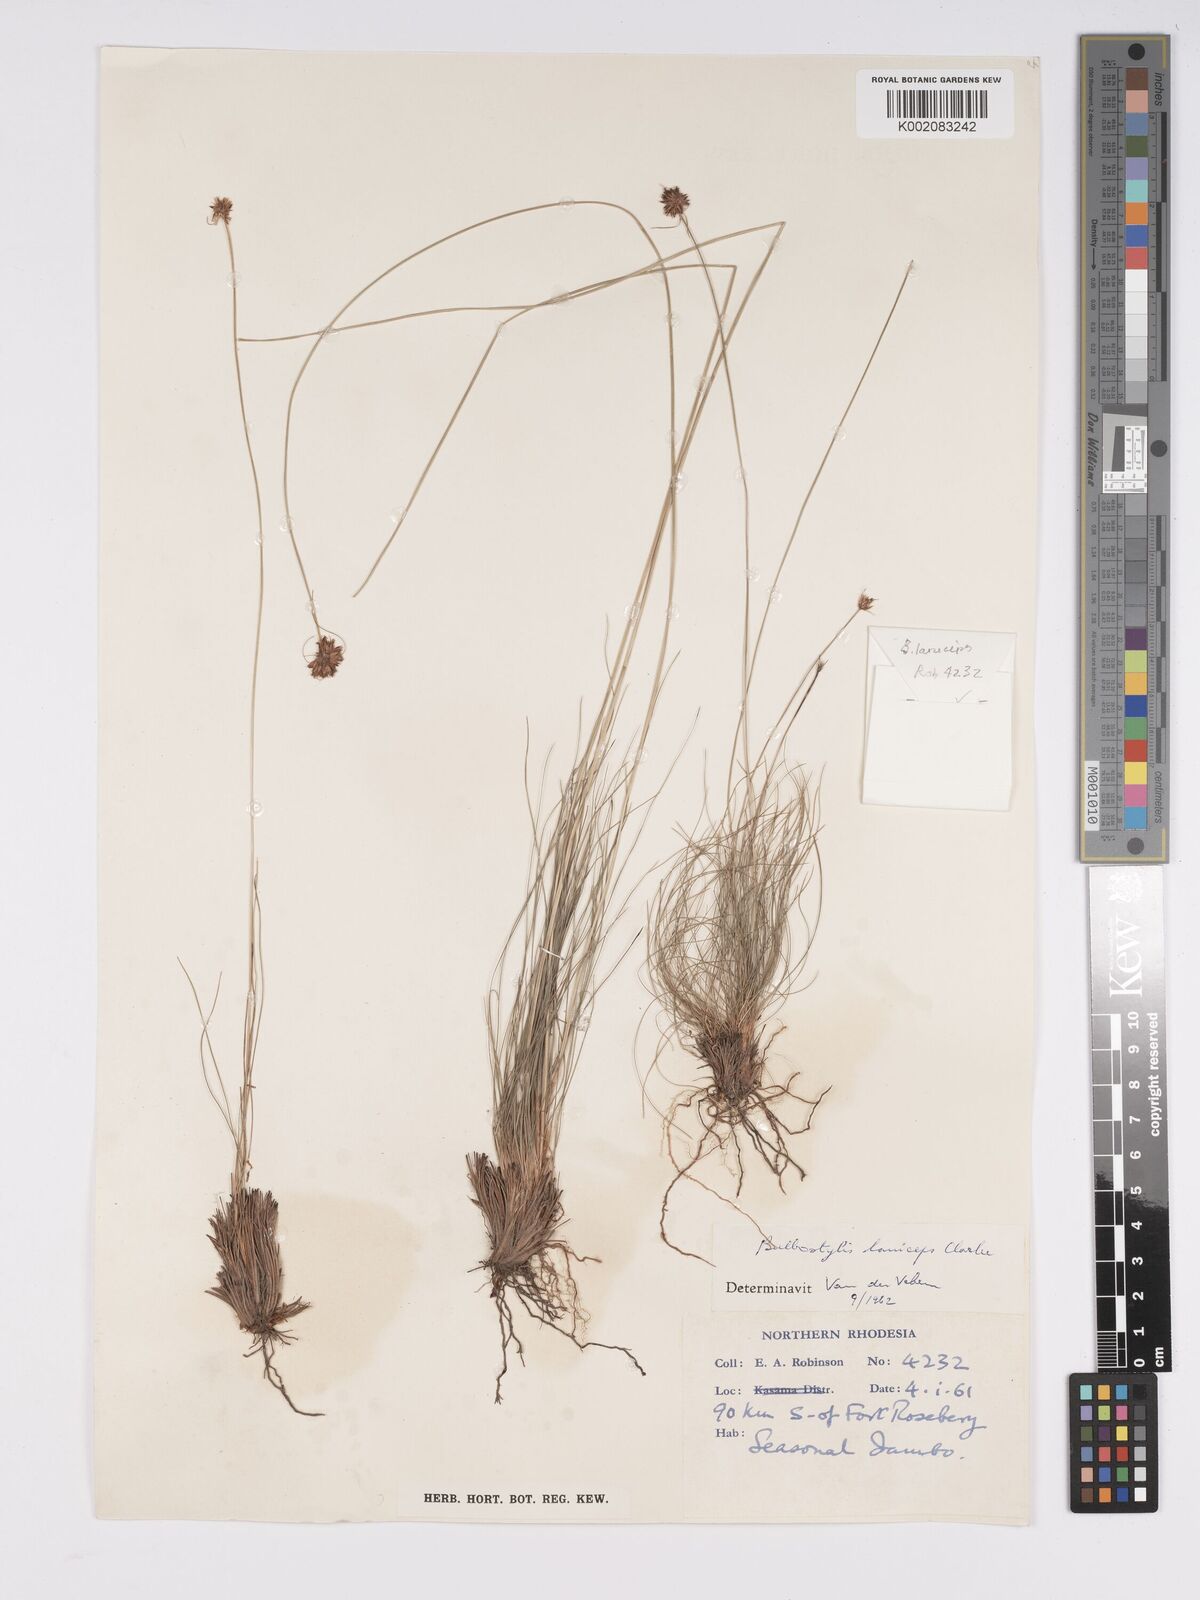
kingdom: Plantae
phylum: Tracheophyta
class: Liliopsida
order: Poales
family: Cyperaceae
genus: Bulbostylis
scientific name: Bulbostylis laniceps
